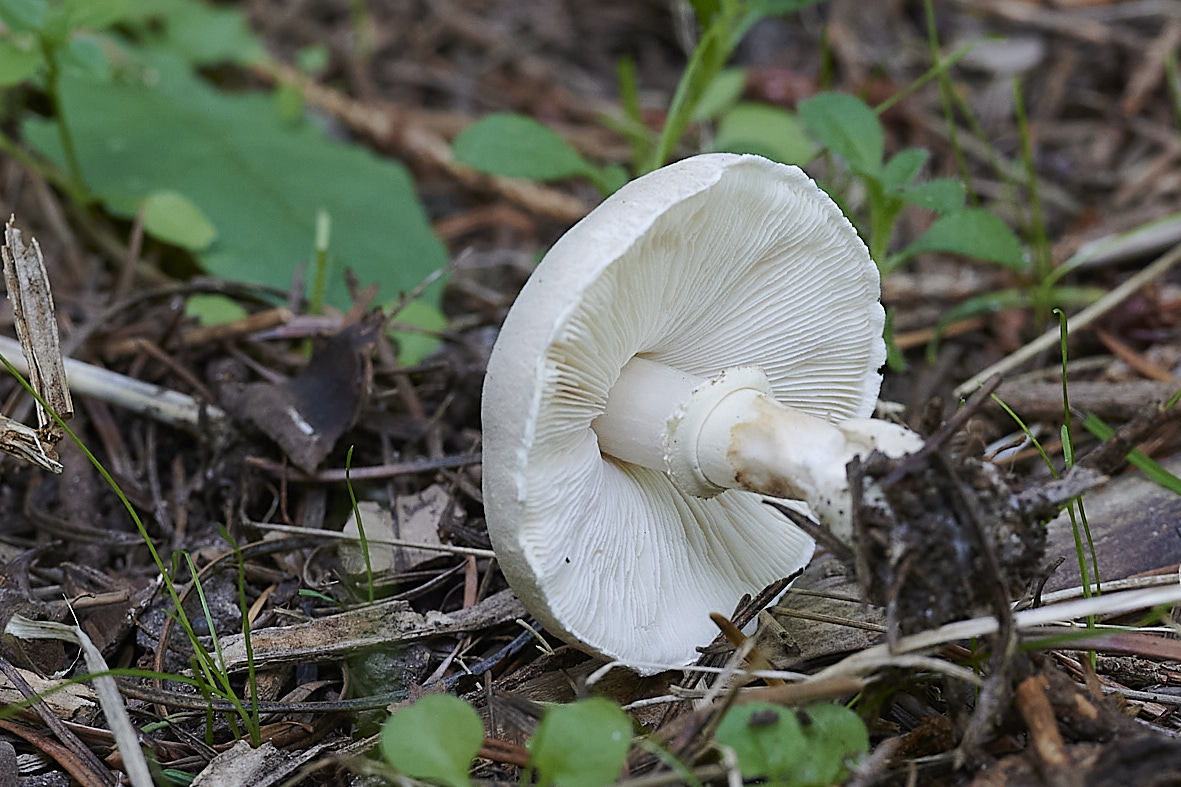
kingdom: Fungi
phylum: Basidiomycota
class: Agaricomycetes
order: Agaricales
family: Agaricaceae
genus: Leucoagaricus
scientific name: Leucoagaricus leucothites
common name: rosabladet silkehat
